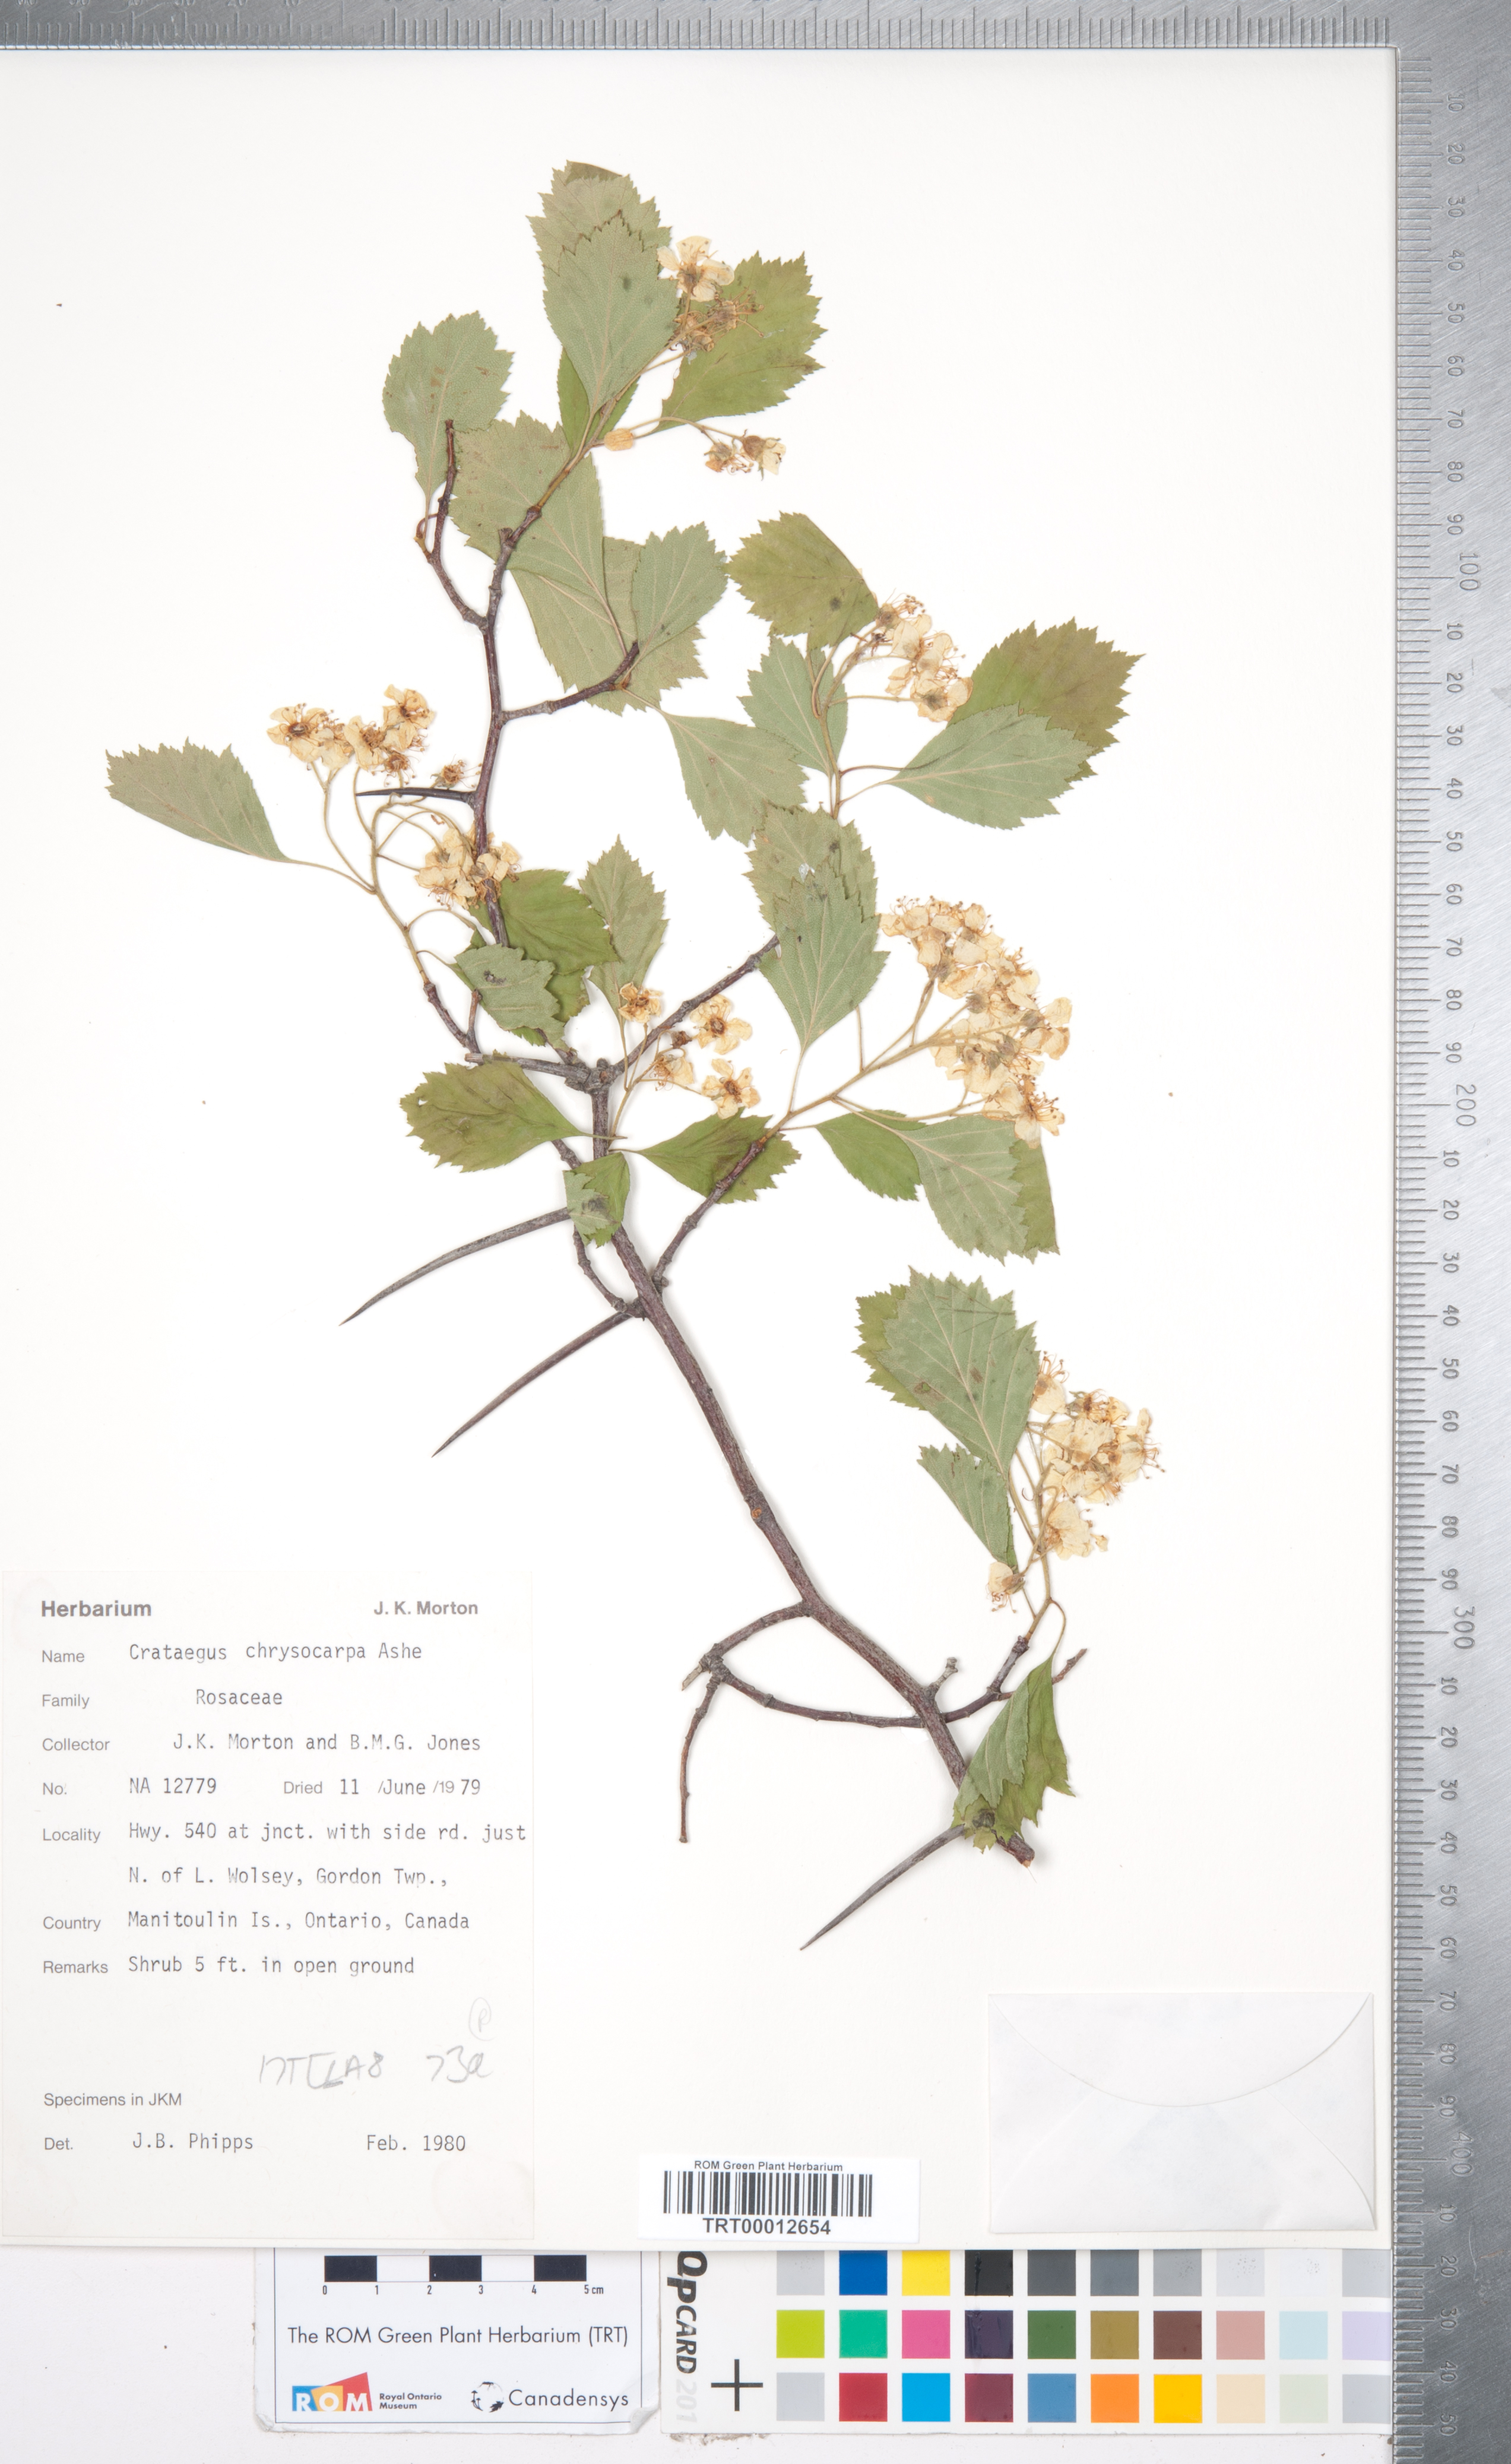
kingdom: Plantae
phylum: Tracheophyta
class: Magnoliopsida
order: Rosales
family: Rosaceae
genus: Crataegus
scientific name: Crataegus chrysocarpa
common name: Fire-berry hawthorn
